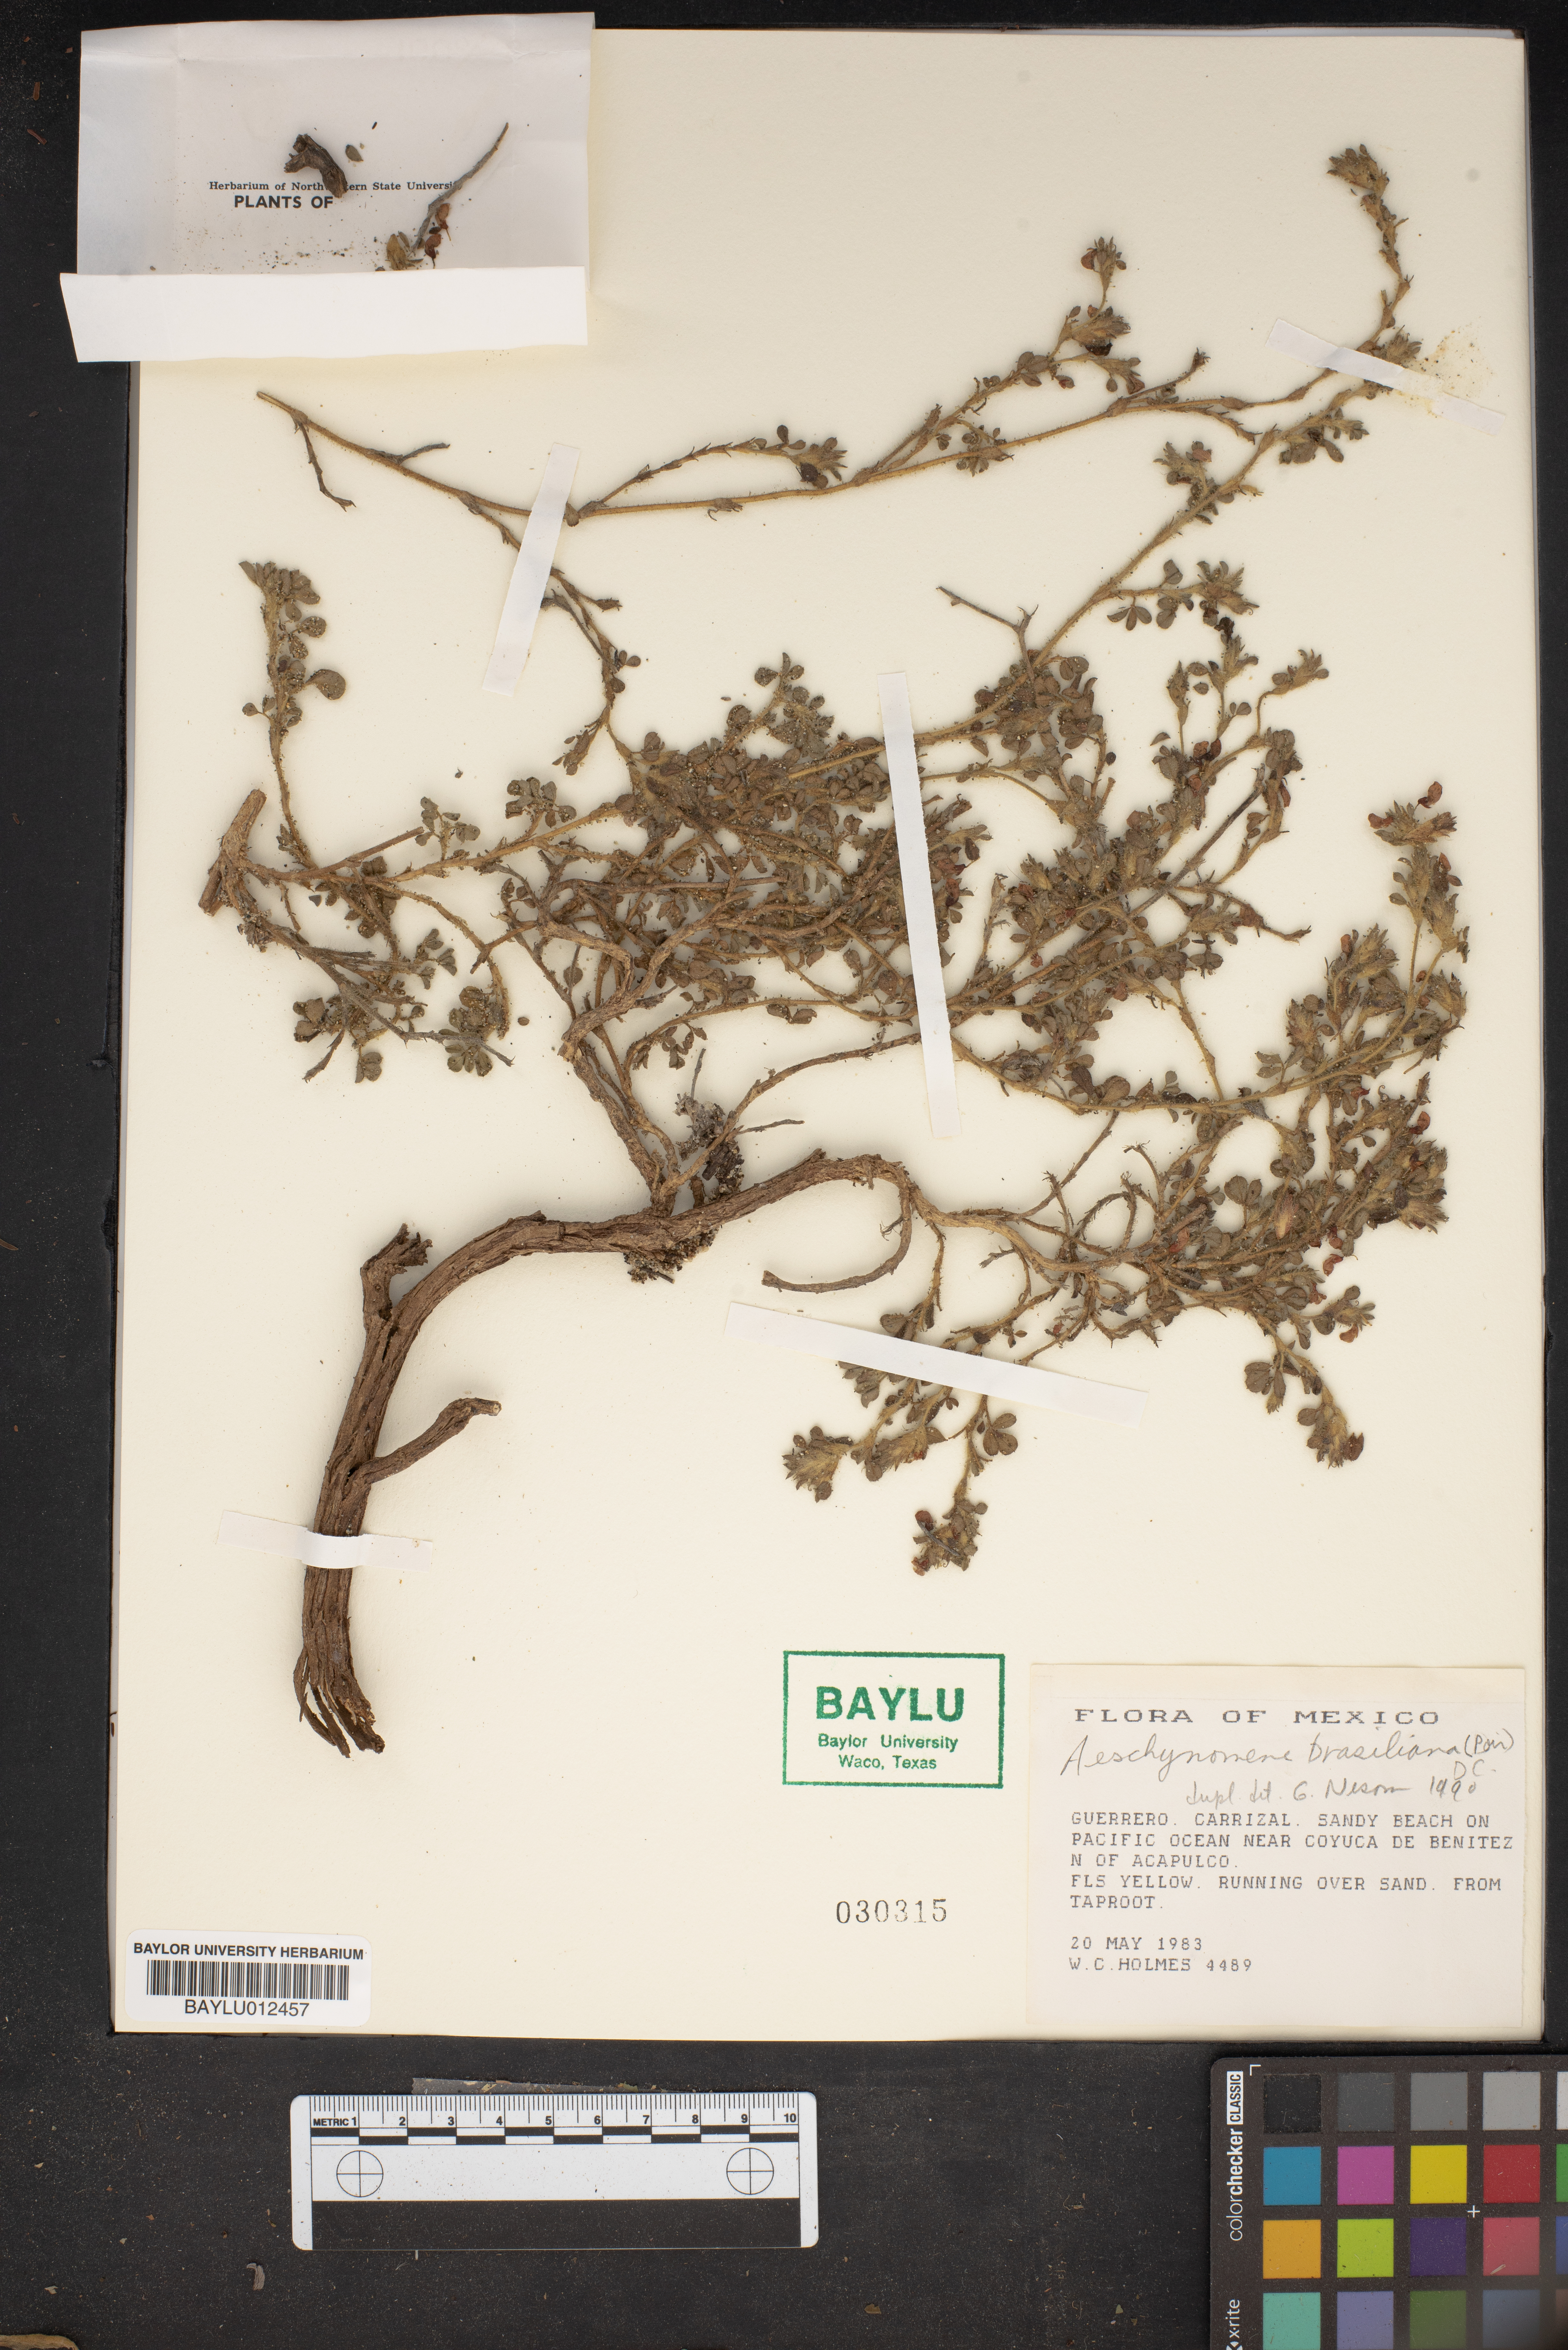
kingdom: Plantae
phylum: Tracheophyta
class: Magnoliopsida
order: Fabales
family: Fabaceae
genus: Ctenodon
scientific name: Ctenodon brasilianus
